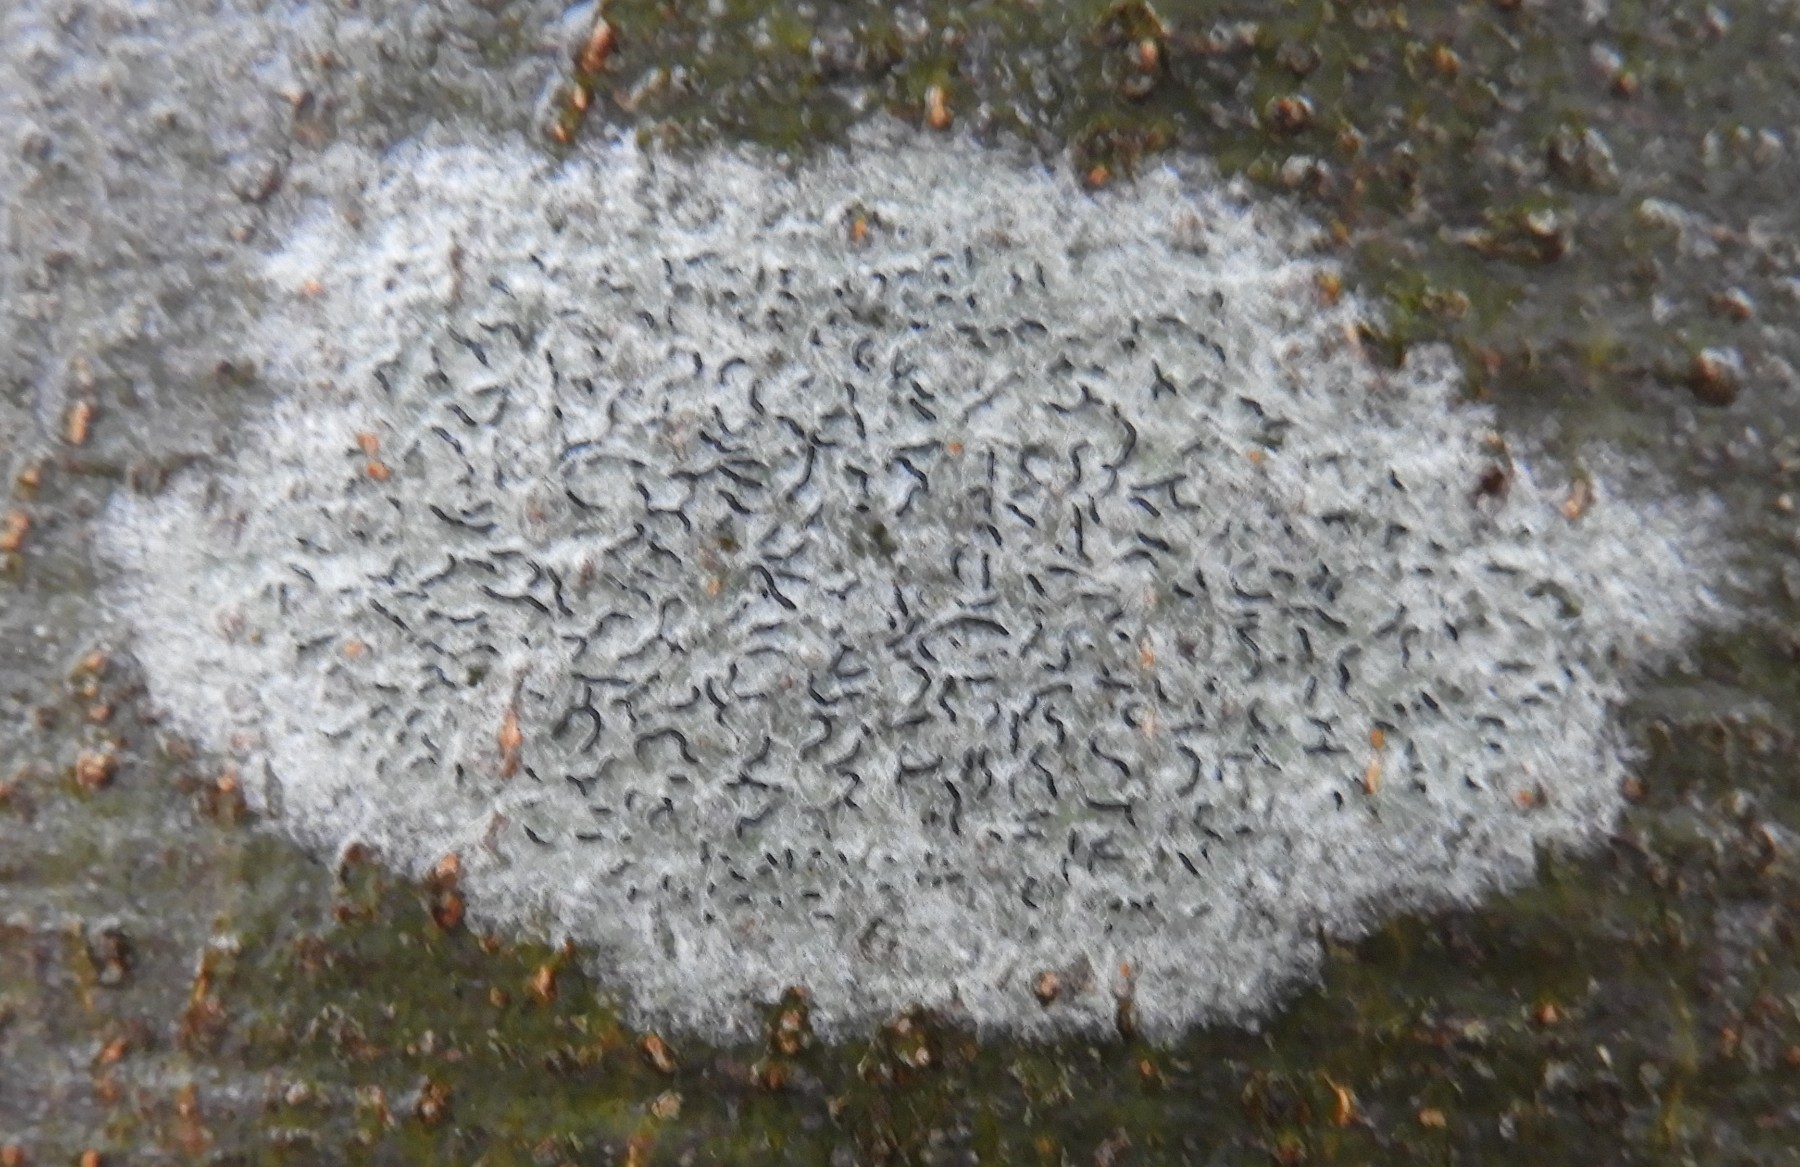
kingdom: Fungi
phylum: Ascomycota
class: Lecanoromycetes
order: Ostropales
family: Graphidaceae
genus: Graphis
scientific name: Graphis scripta
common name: almindelig skriftlav
